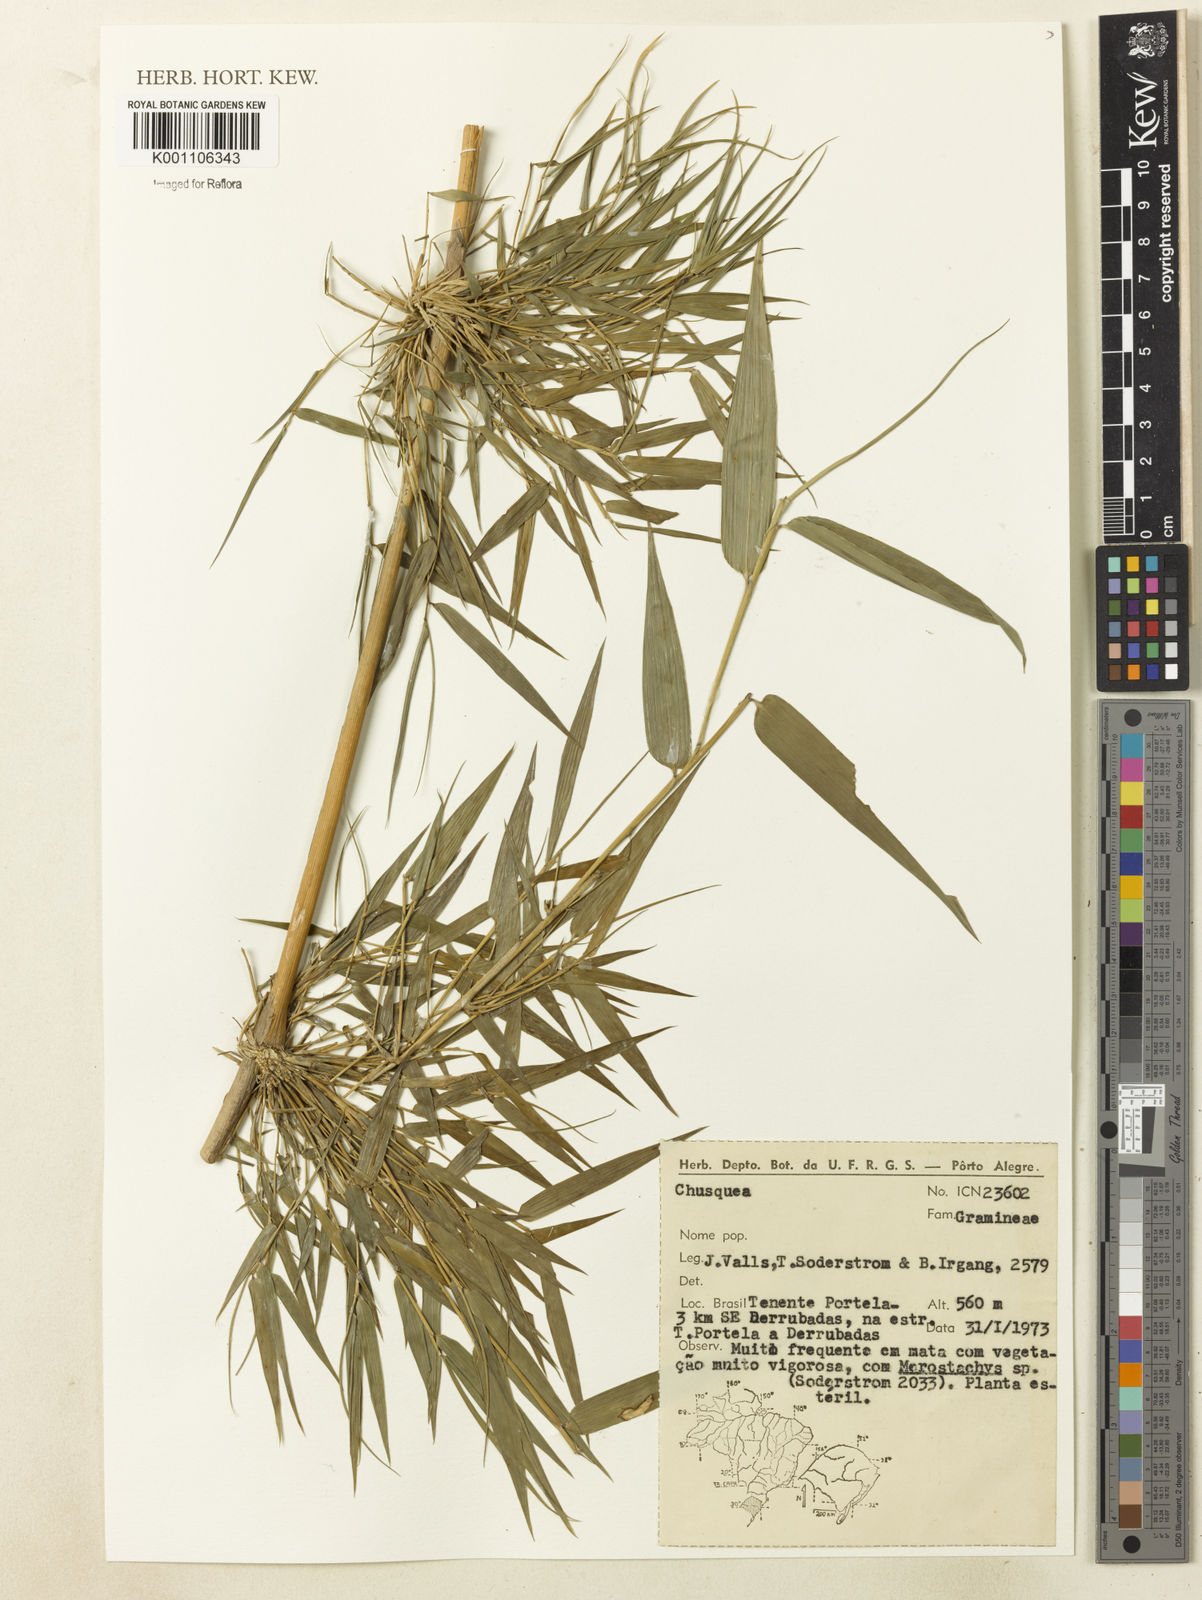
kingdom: Plantae
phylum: Tracheophyta
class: Liliopsida
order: Poales
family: Poaceae
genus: Chusquea
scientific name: Chusquea
